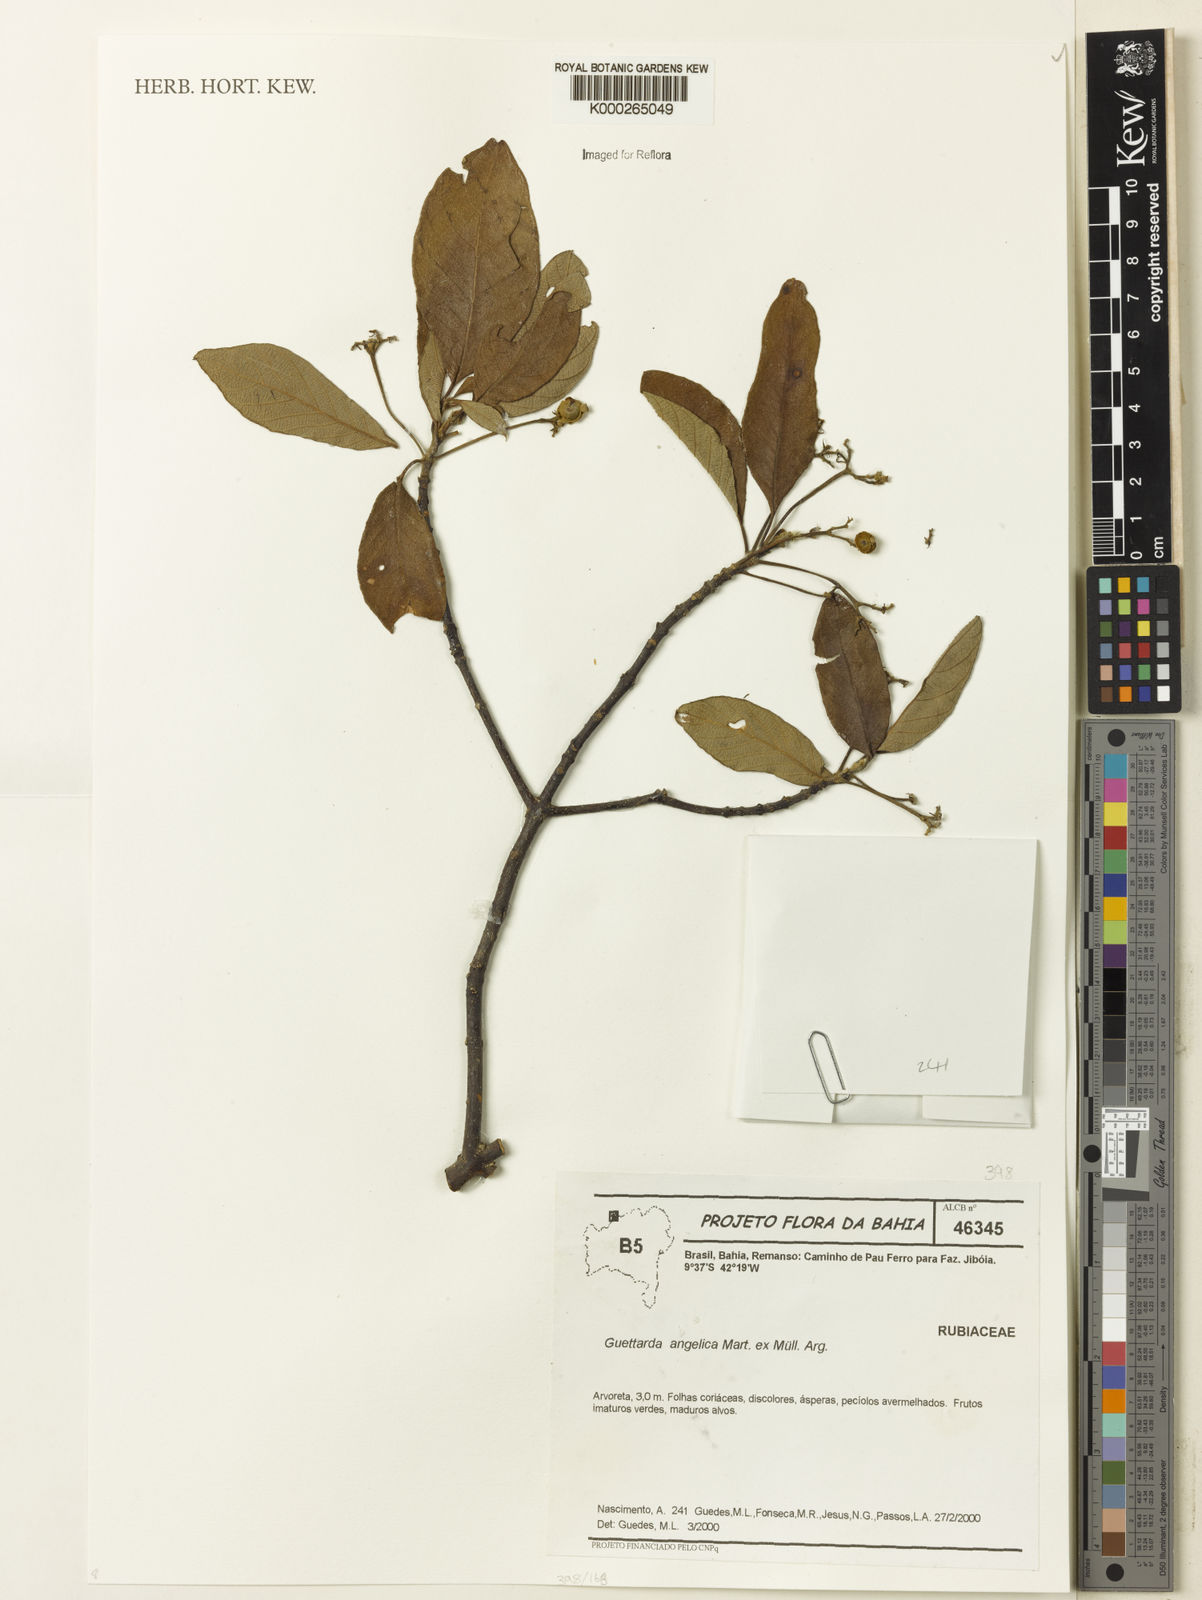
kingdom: Plantae
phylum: Tracheophyta
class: Magnoliopsida
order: Gentianales
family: Rubiaceae
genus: Guettarda
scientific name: Guettarda
